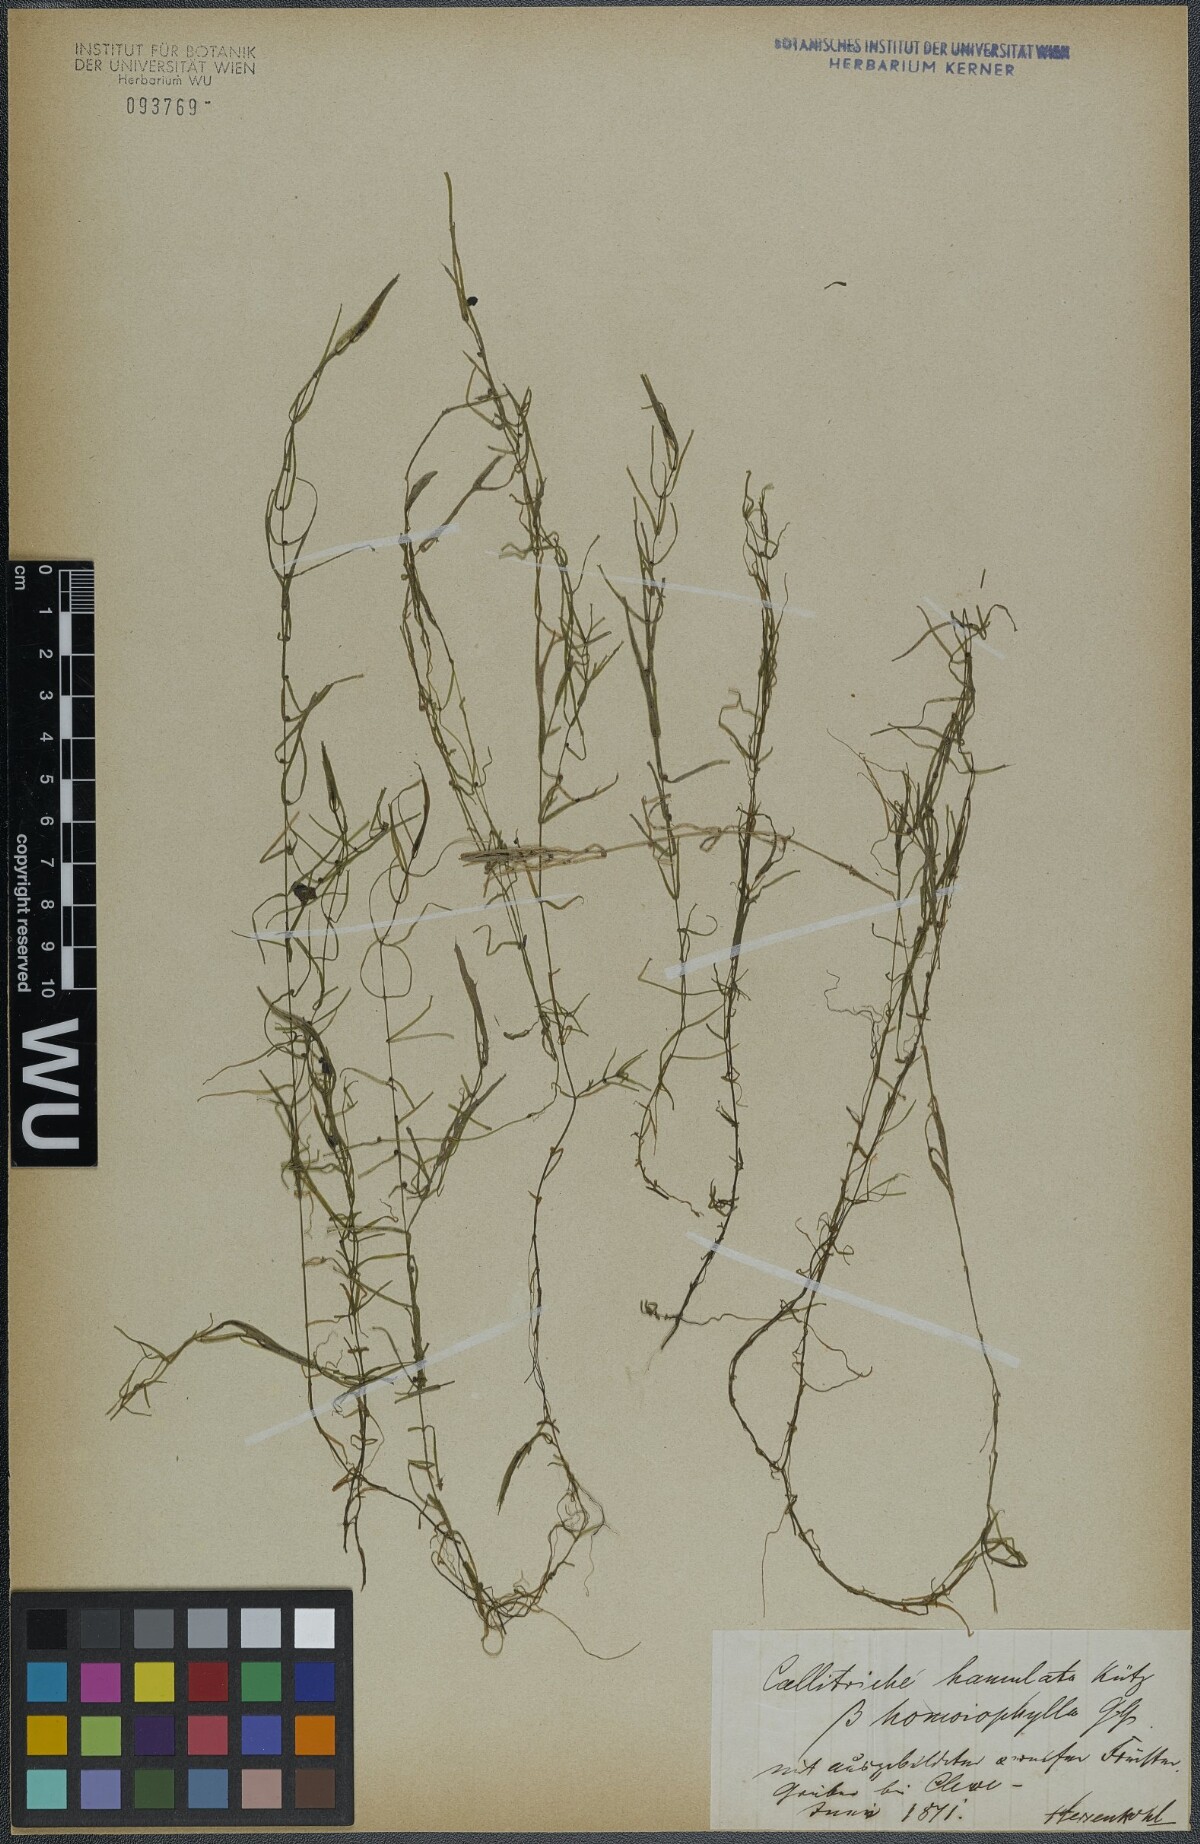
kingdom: Plantae
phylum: Tracheophyta
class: Magnoliopsida
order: Lamiales
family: Plantaginaceae
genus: Callitriche
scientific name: Callitriche hamulata
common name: Intermediate water-starwort
